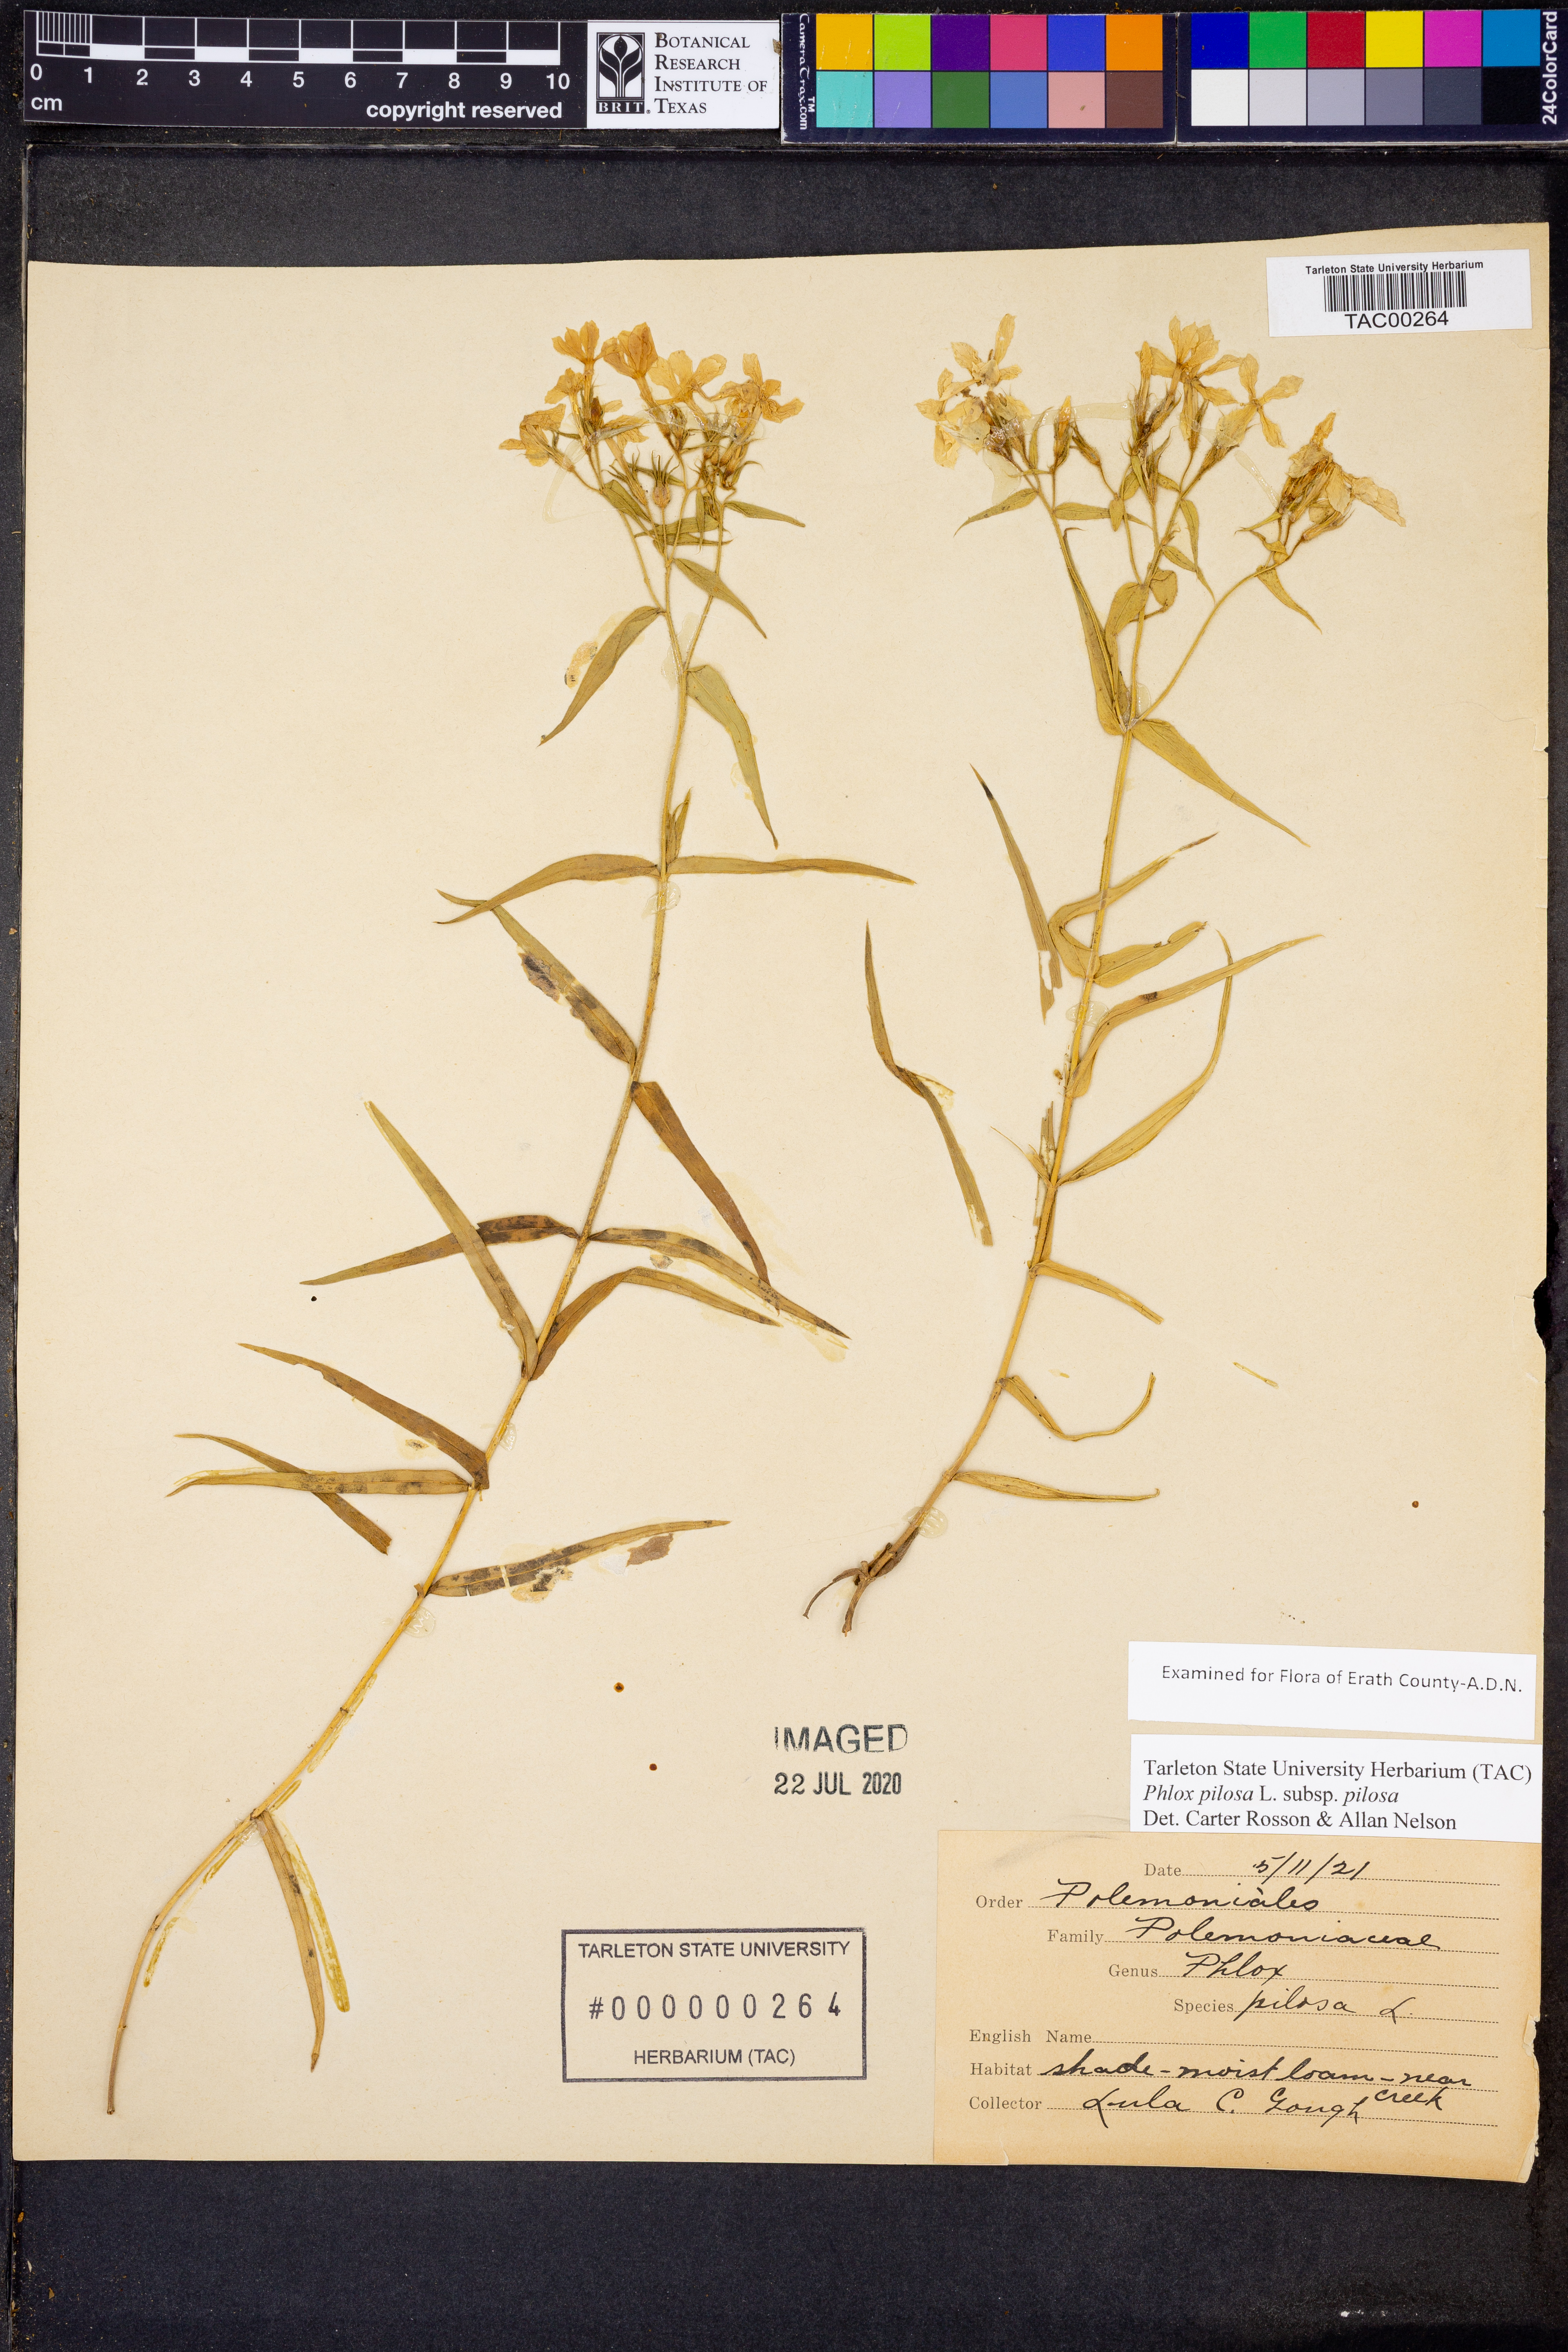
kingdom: Plantae
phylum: Tracheophyta
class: Magnoliopsida
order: Ericales
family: Polemoniaceae
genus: Phlox
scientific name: Phlox pilosa
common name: Prairie phlox
